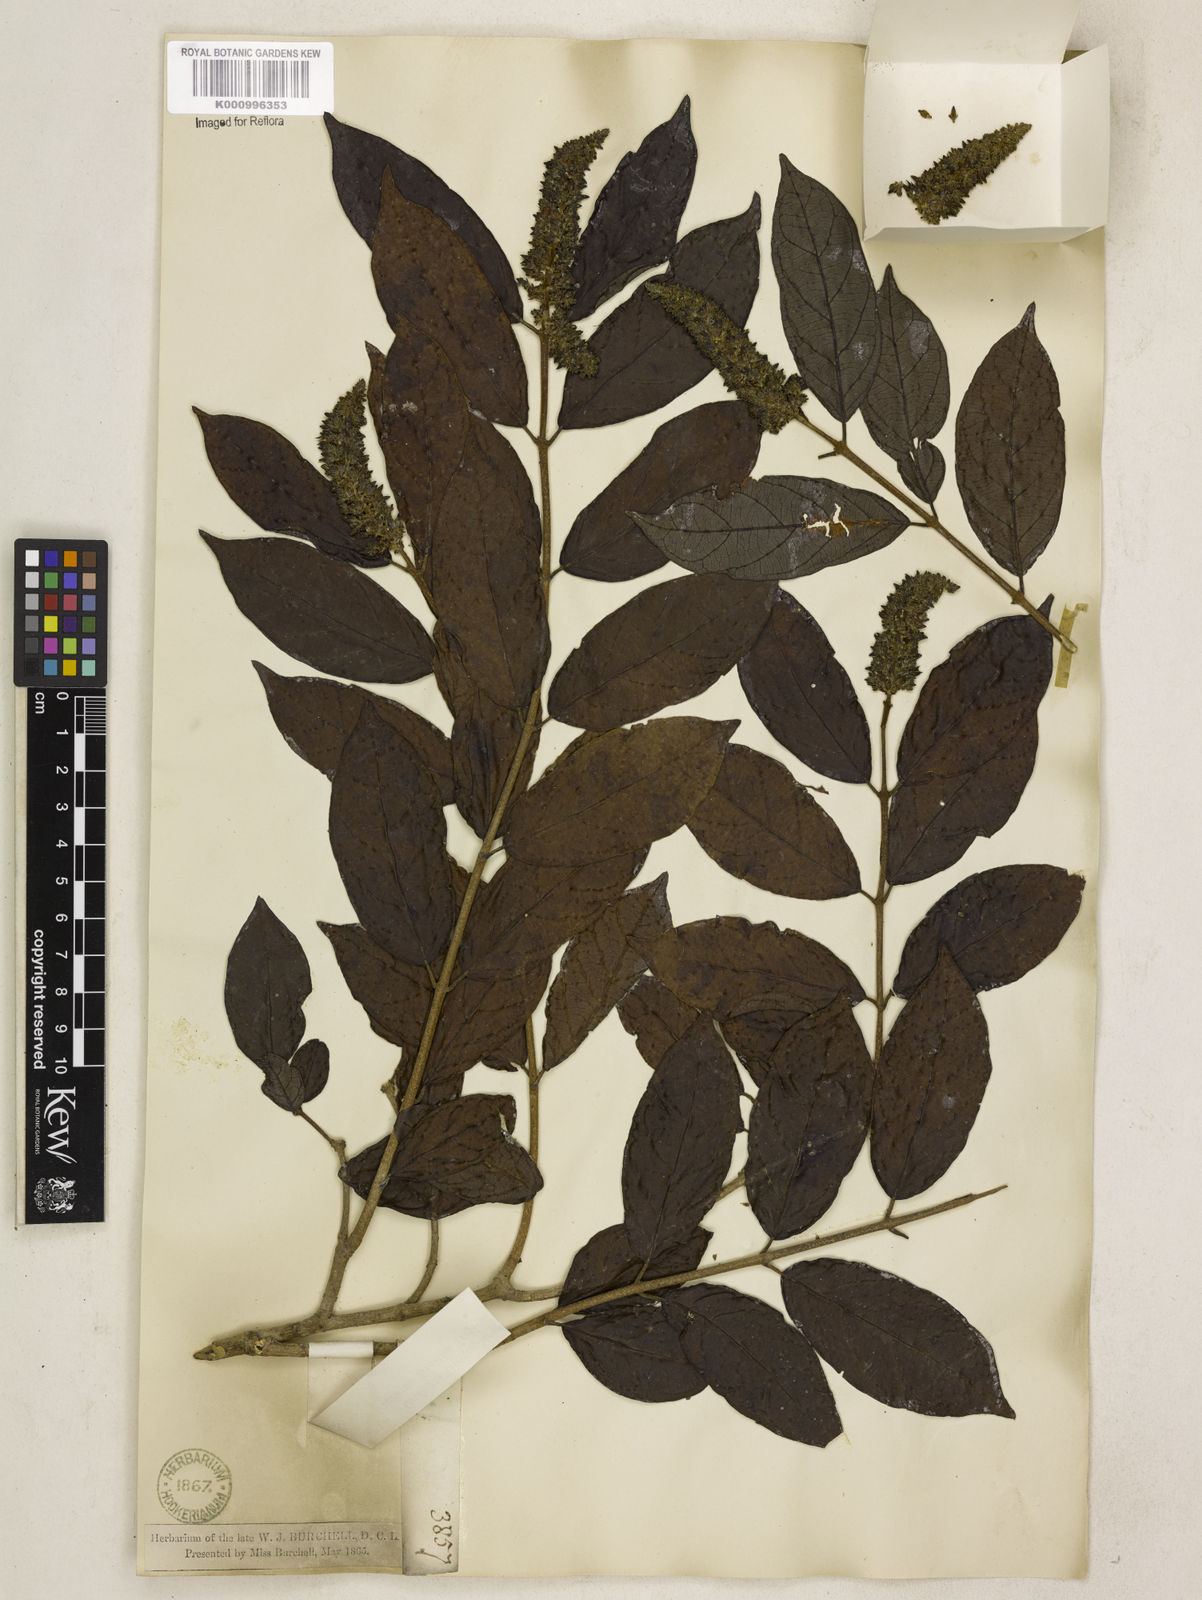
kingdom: Plantae
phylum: Tracheophyta
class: Magnoliopsida
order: Gentianales
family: Apocynaceae
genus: Forsteronia
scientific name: Forsteronia leptocarpa
